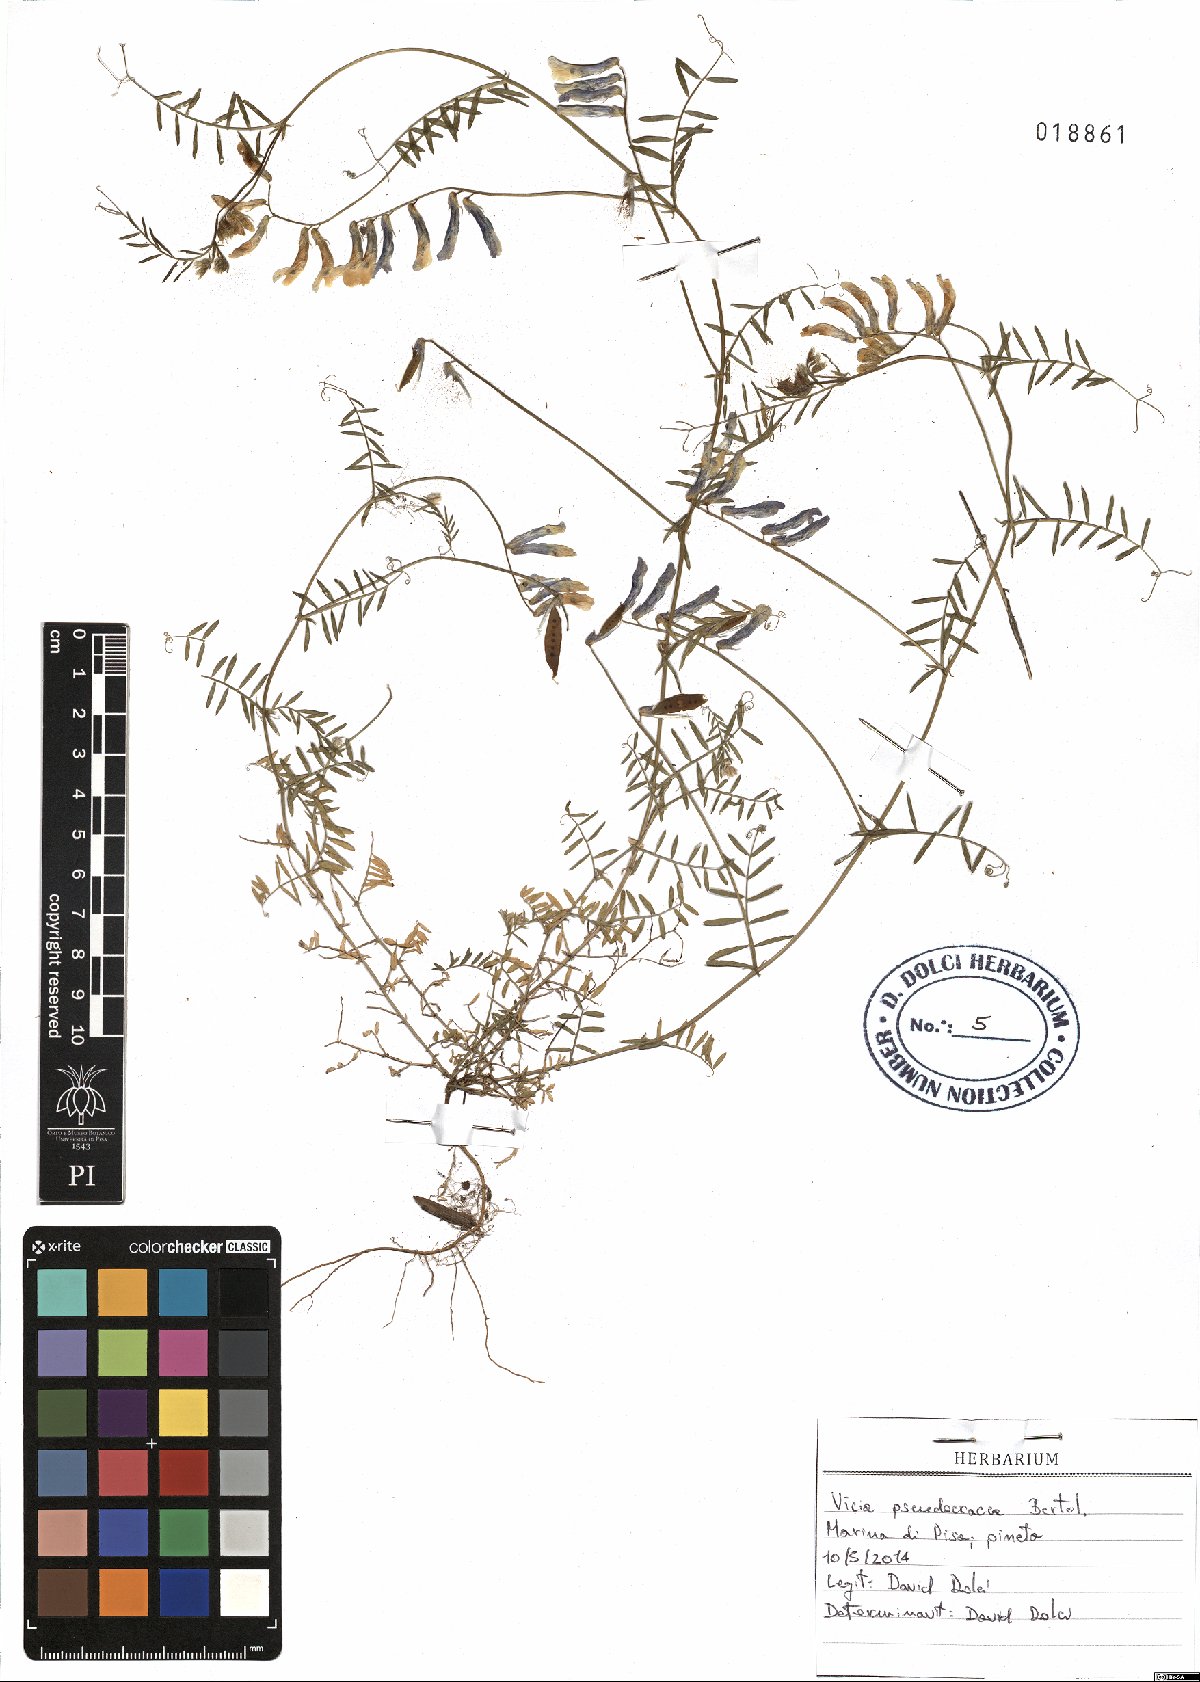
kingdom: Plantae
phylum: Tracheophyta
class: Magnoliopsida
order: Fabales
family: Fabaceae
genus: Vicia
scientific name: Vicia villosa
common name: Fodder vetch
